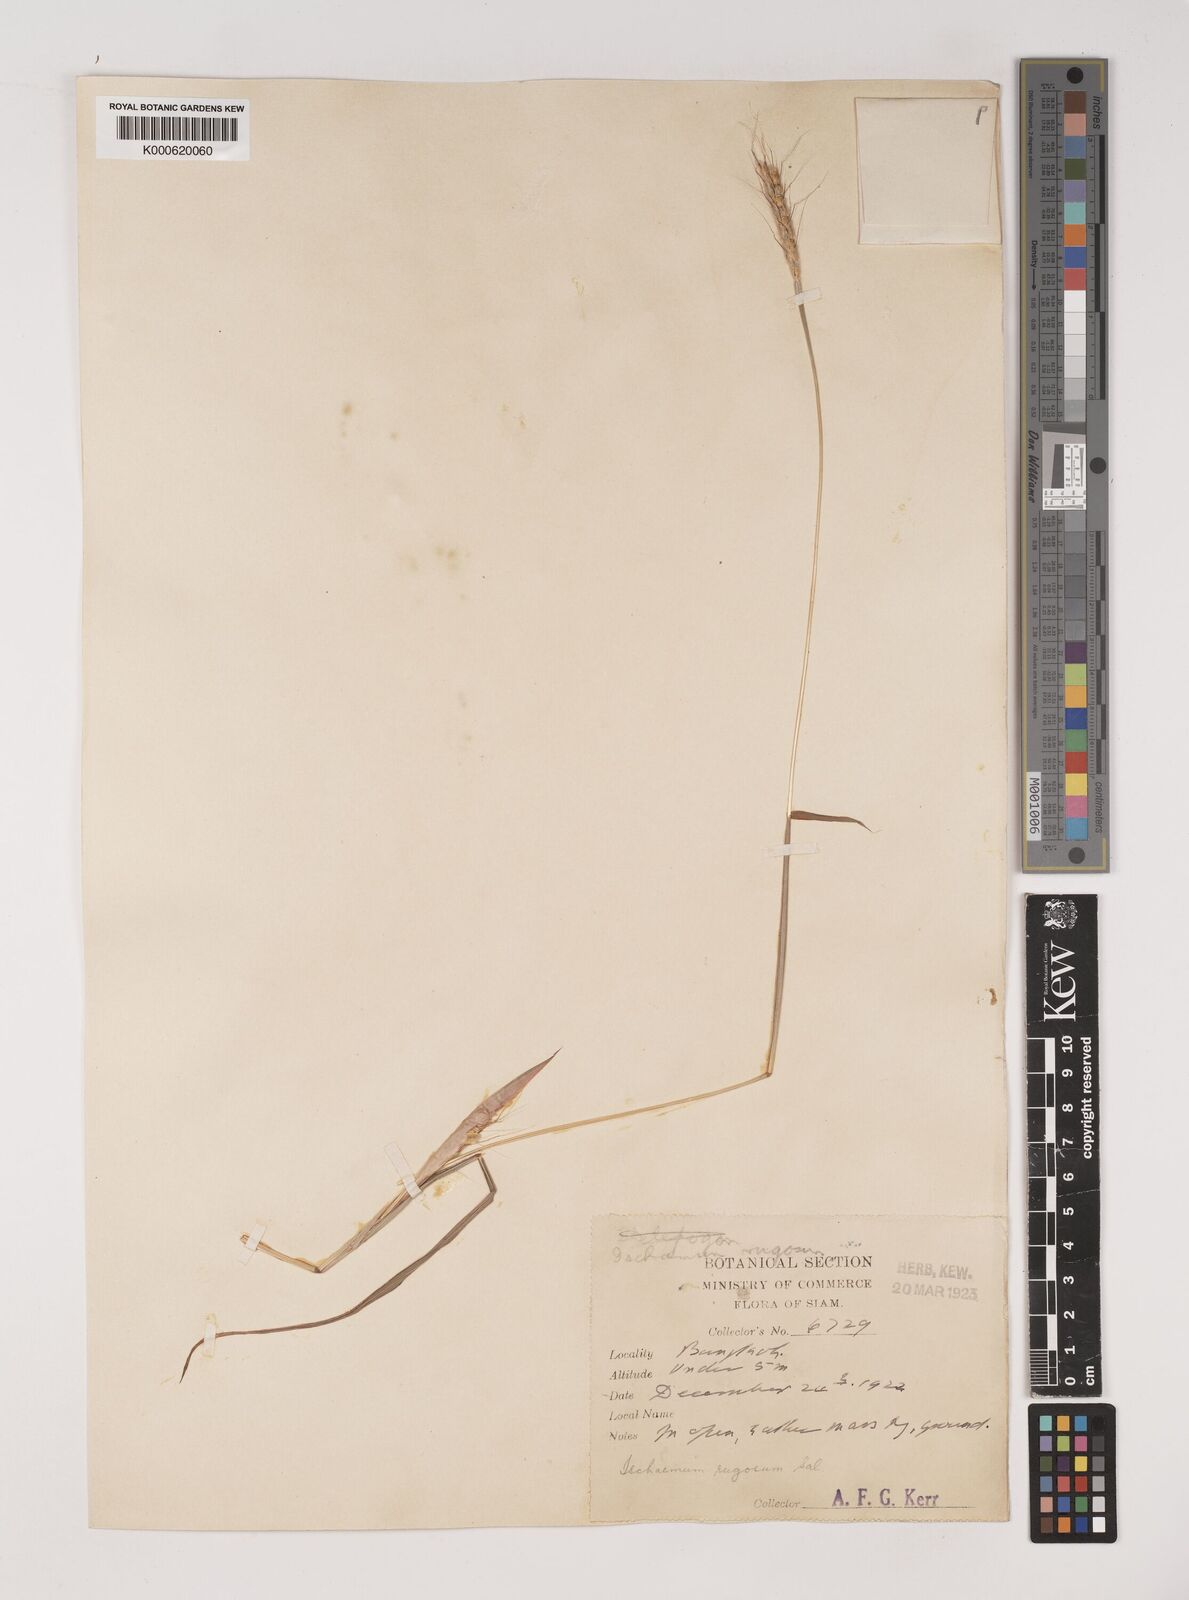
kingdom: Plantae
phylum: Tracheophyta
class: Liliopsida
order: Poales
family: Poaceae
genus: Ischaemum
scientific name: Ischaemum rugosum
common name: Saramatta grass
